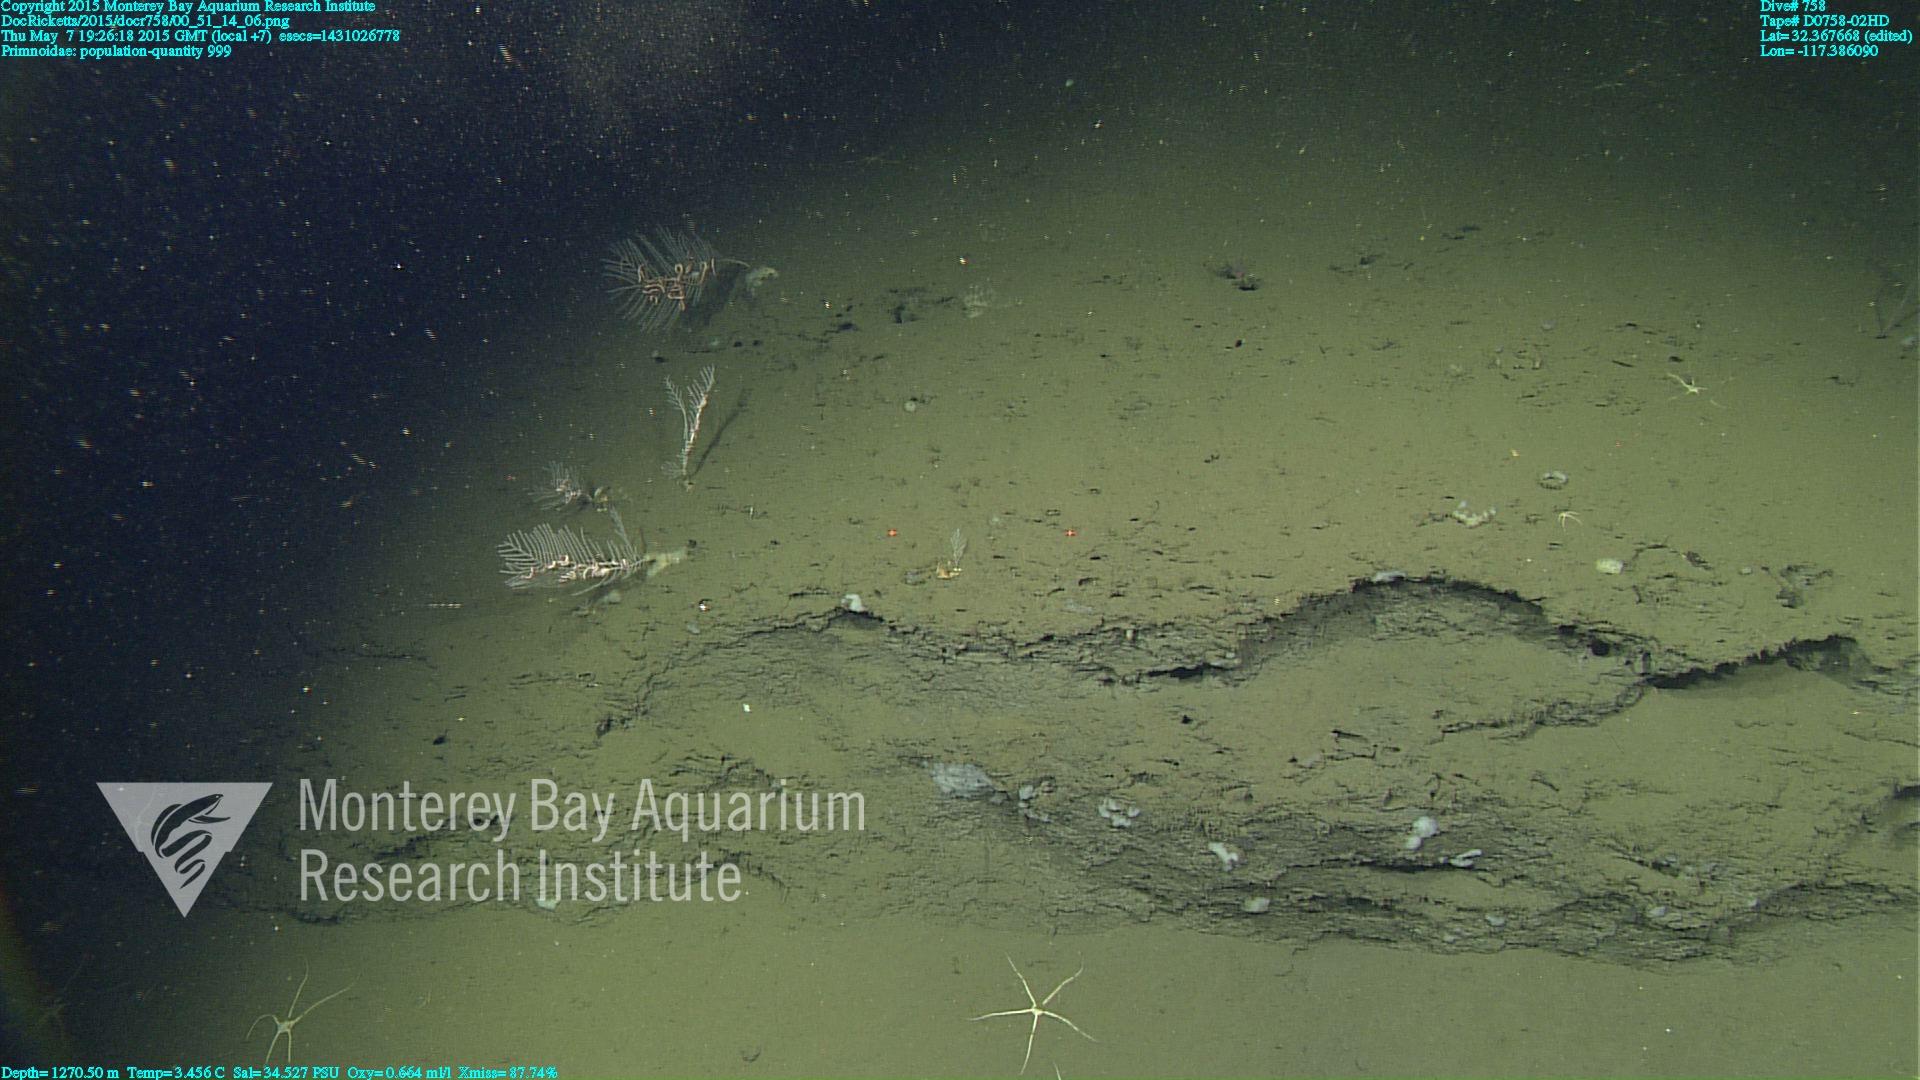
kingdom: Animalia
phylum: Cnidaria
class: Anthozoa
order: Scleralcyonacea
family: Primnoidae
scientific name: Primnoidae
